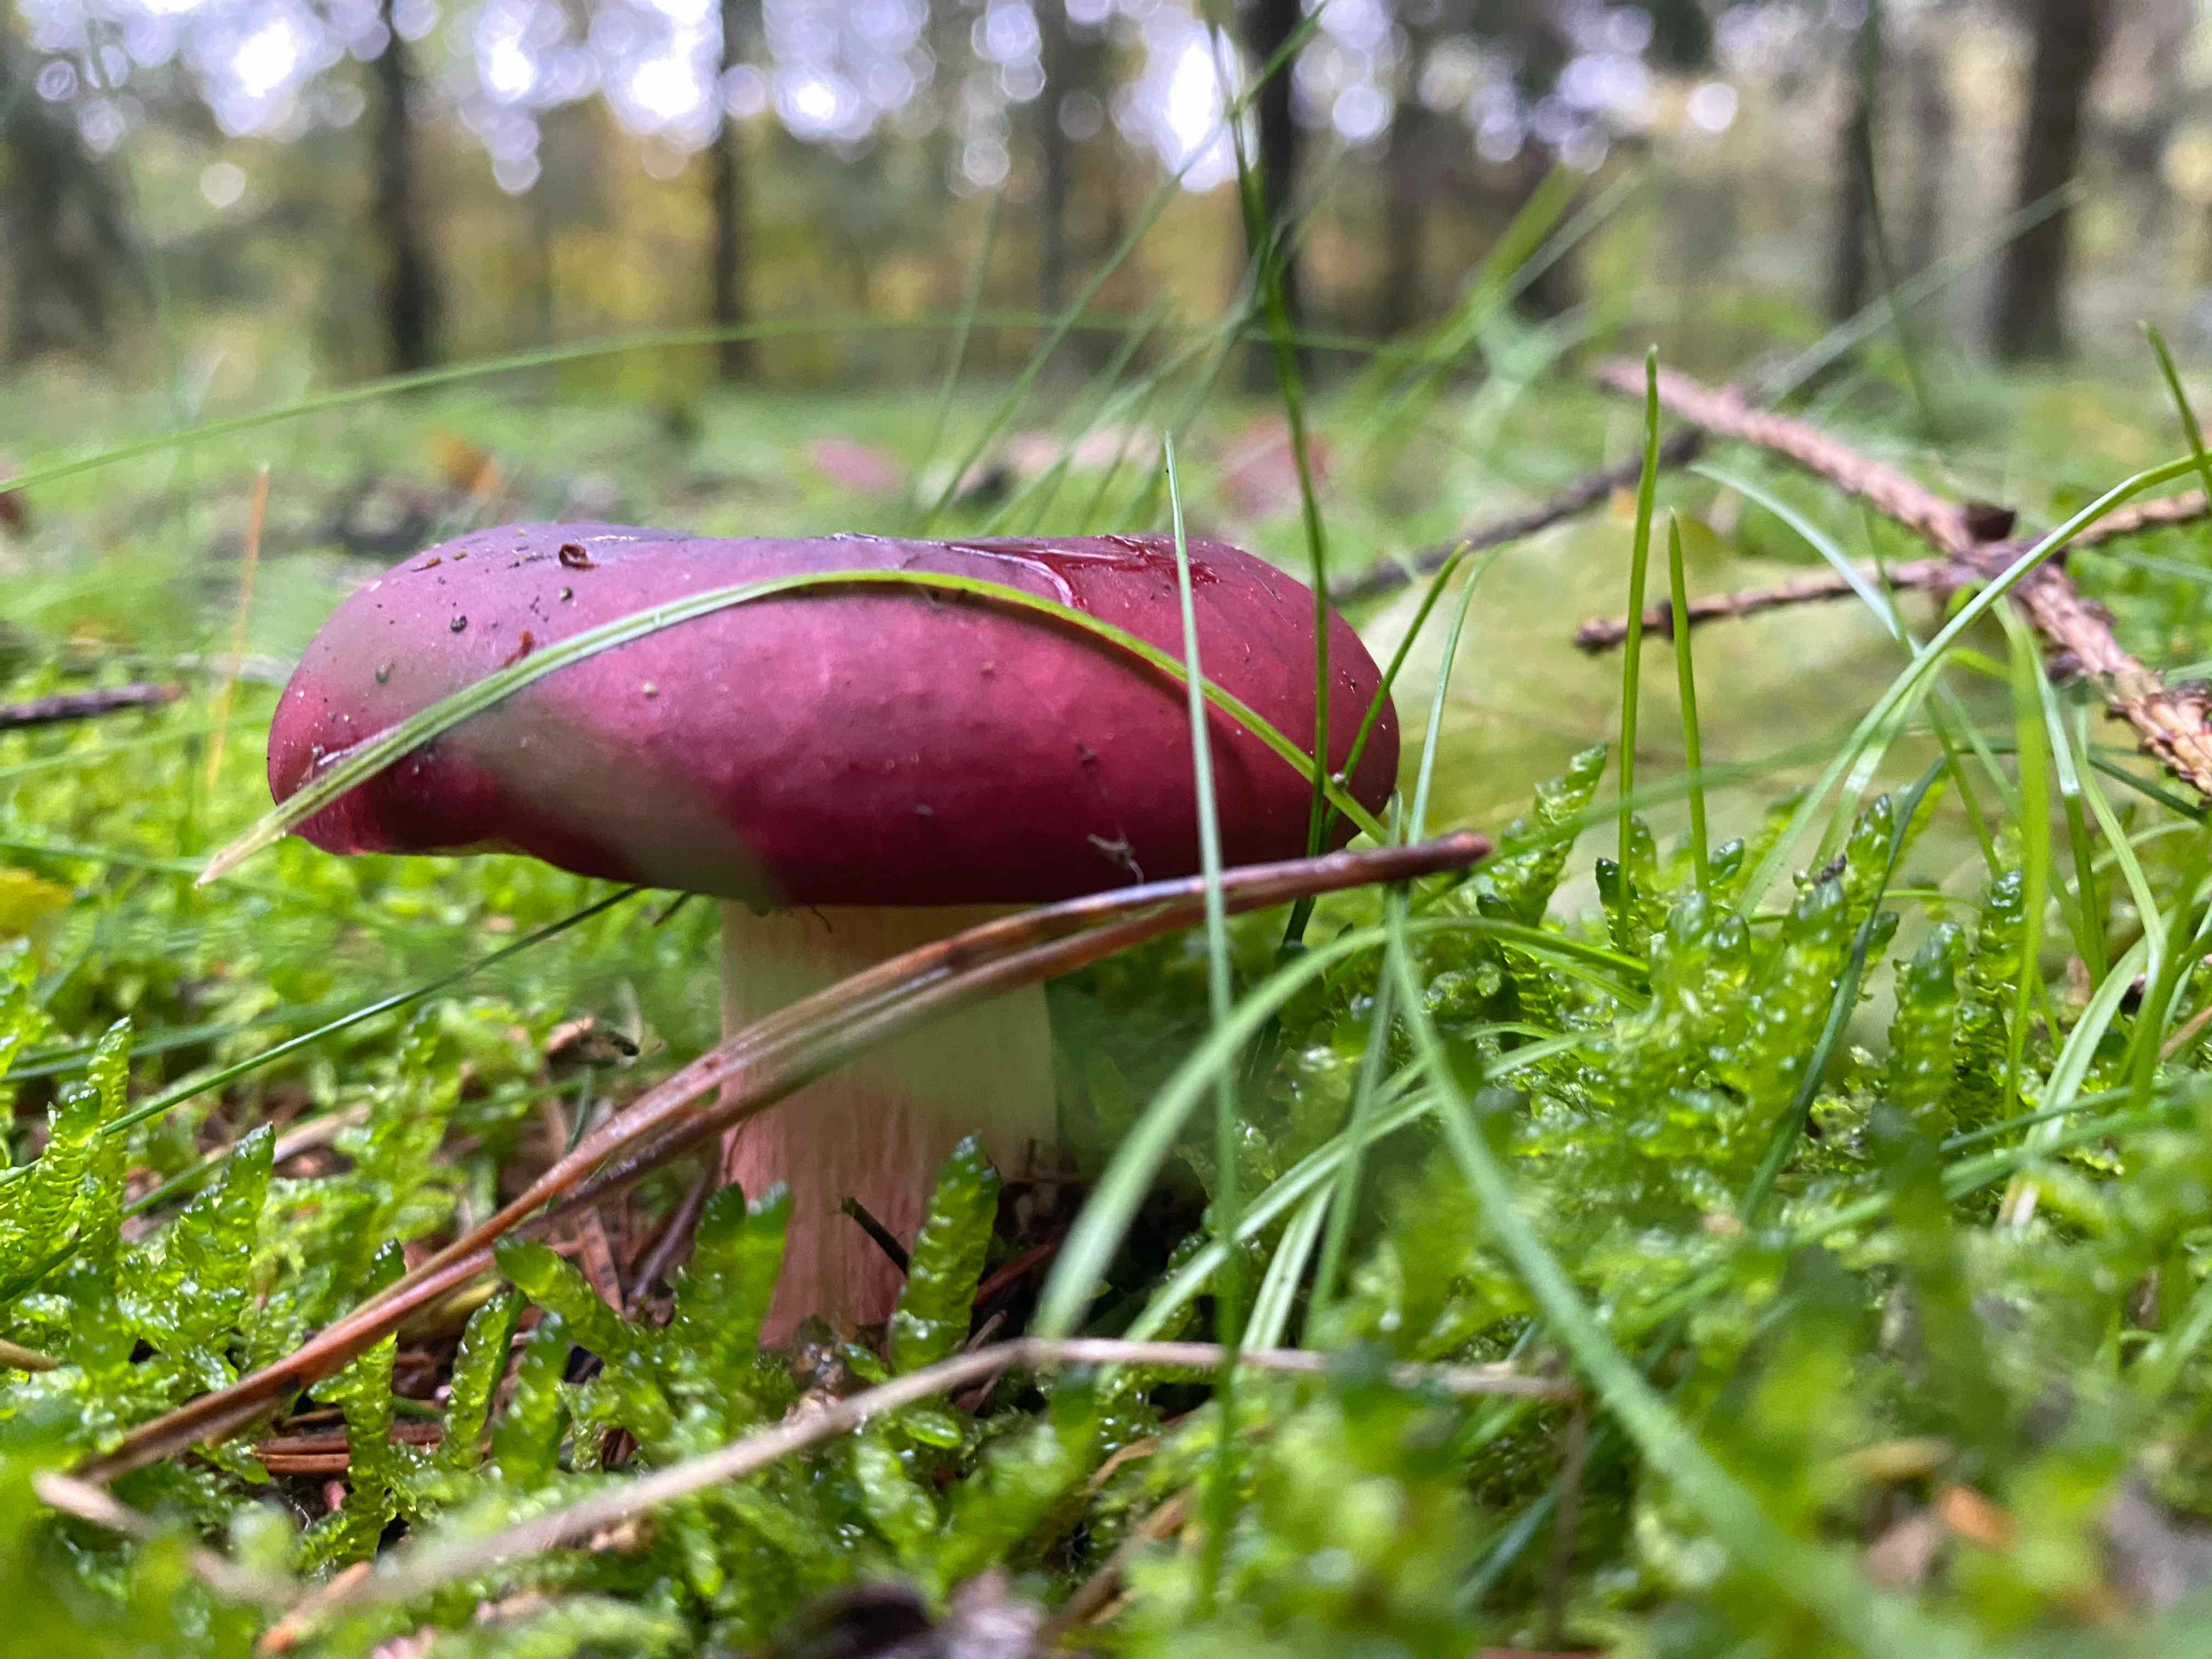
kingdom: Fungi
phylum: Basidiomycota
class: Agaricomycetes
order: Russulales
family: Russulaceae
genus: Russula
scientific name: Russula xerampelina
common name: hummer-skørhat
